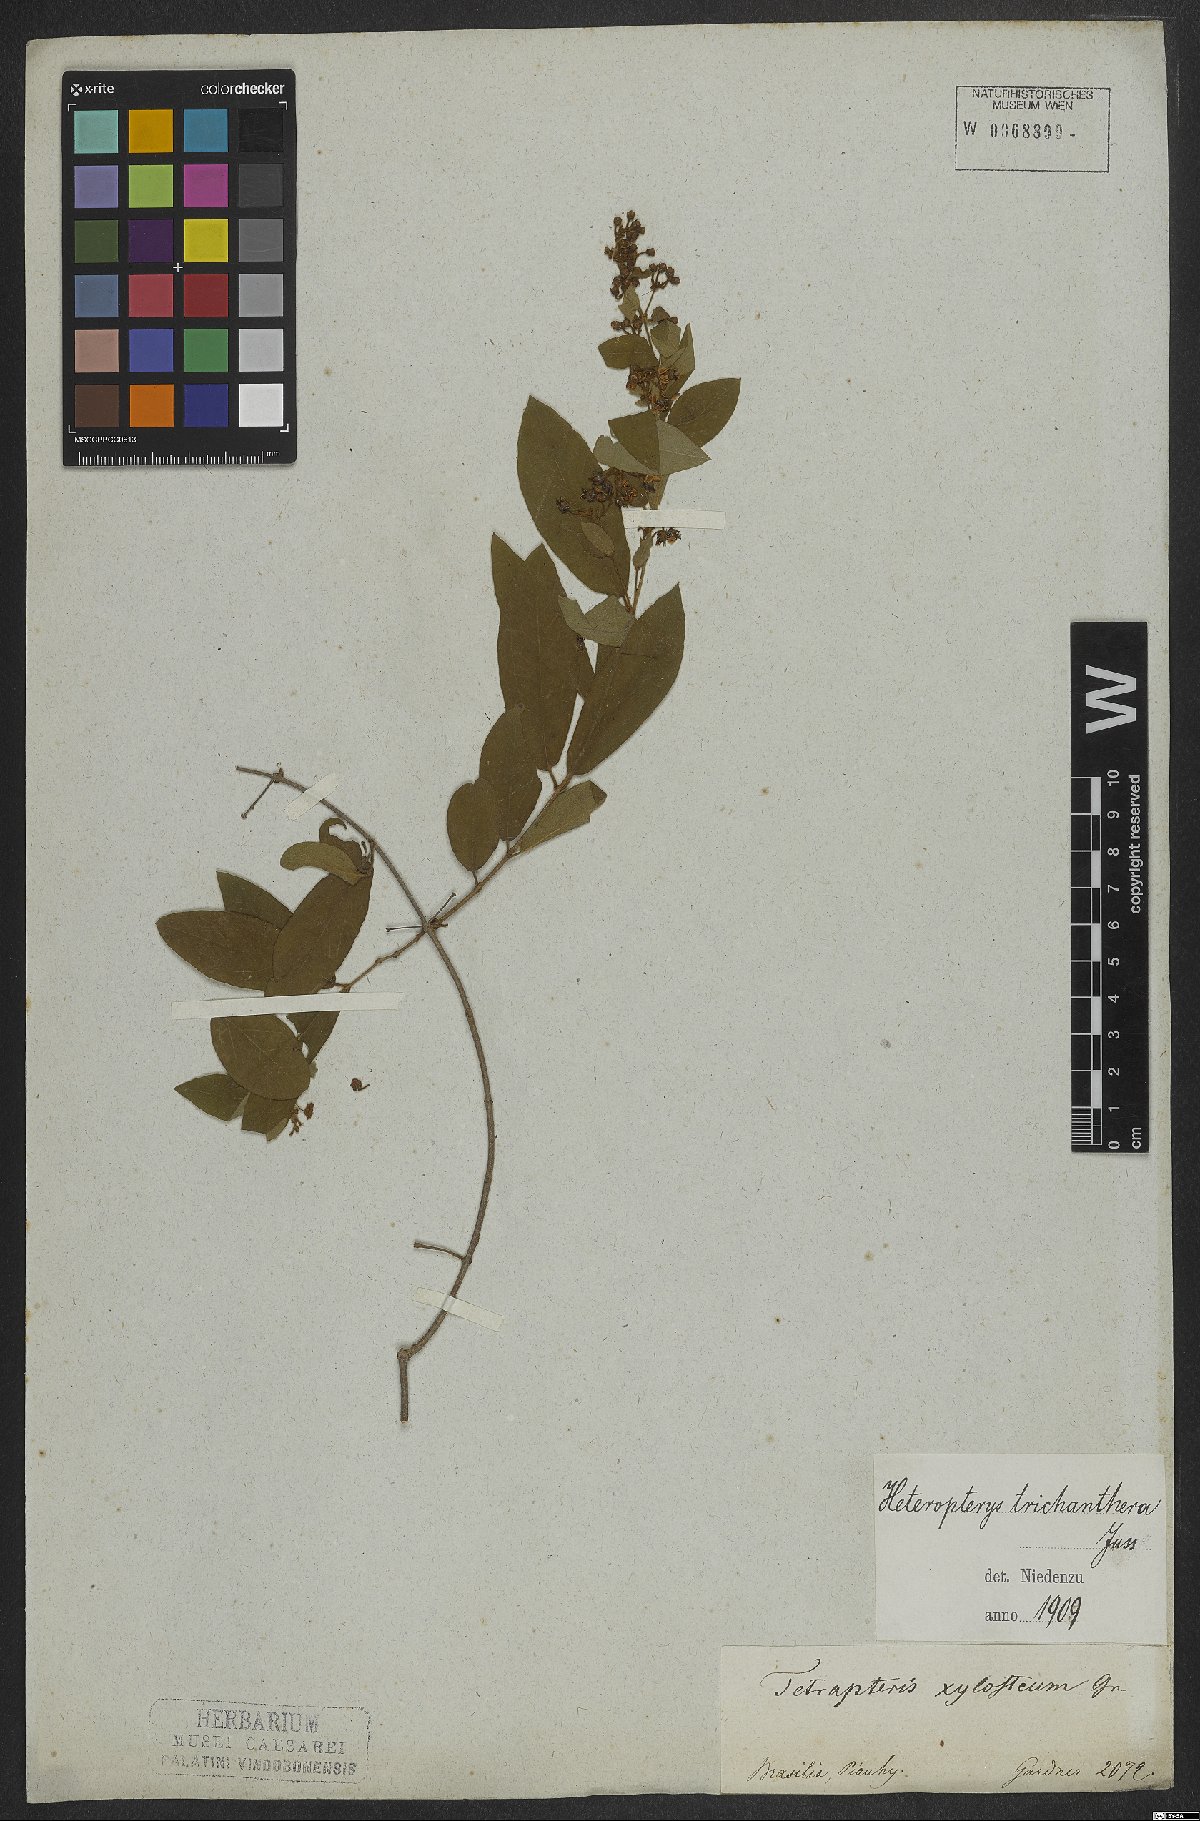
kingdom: Plantae
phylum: Tracheophyta
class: Magnoliopsida
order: Malpighiales
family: Malpighiaceae
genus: Heteropterys
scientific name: Heteropterys trichanthera
